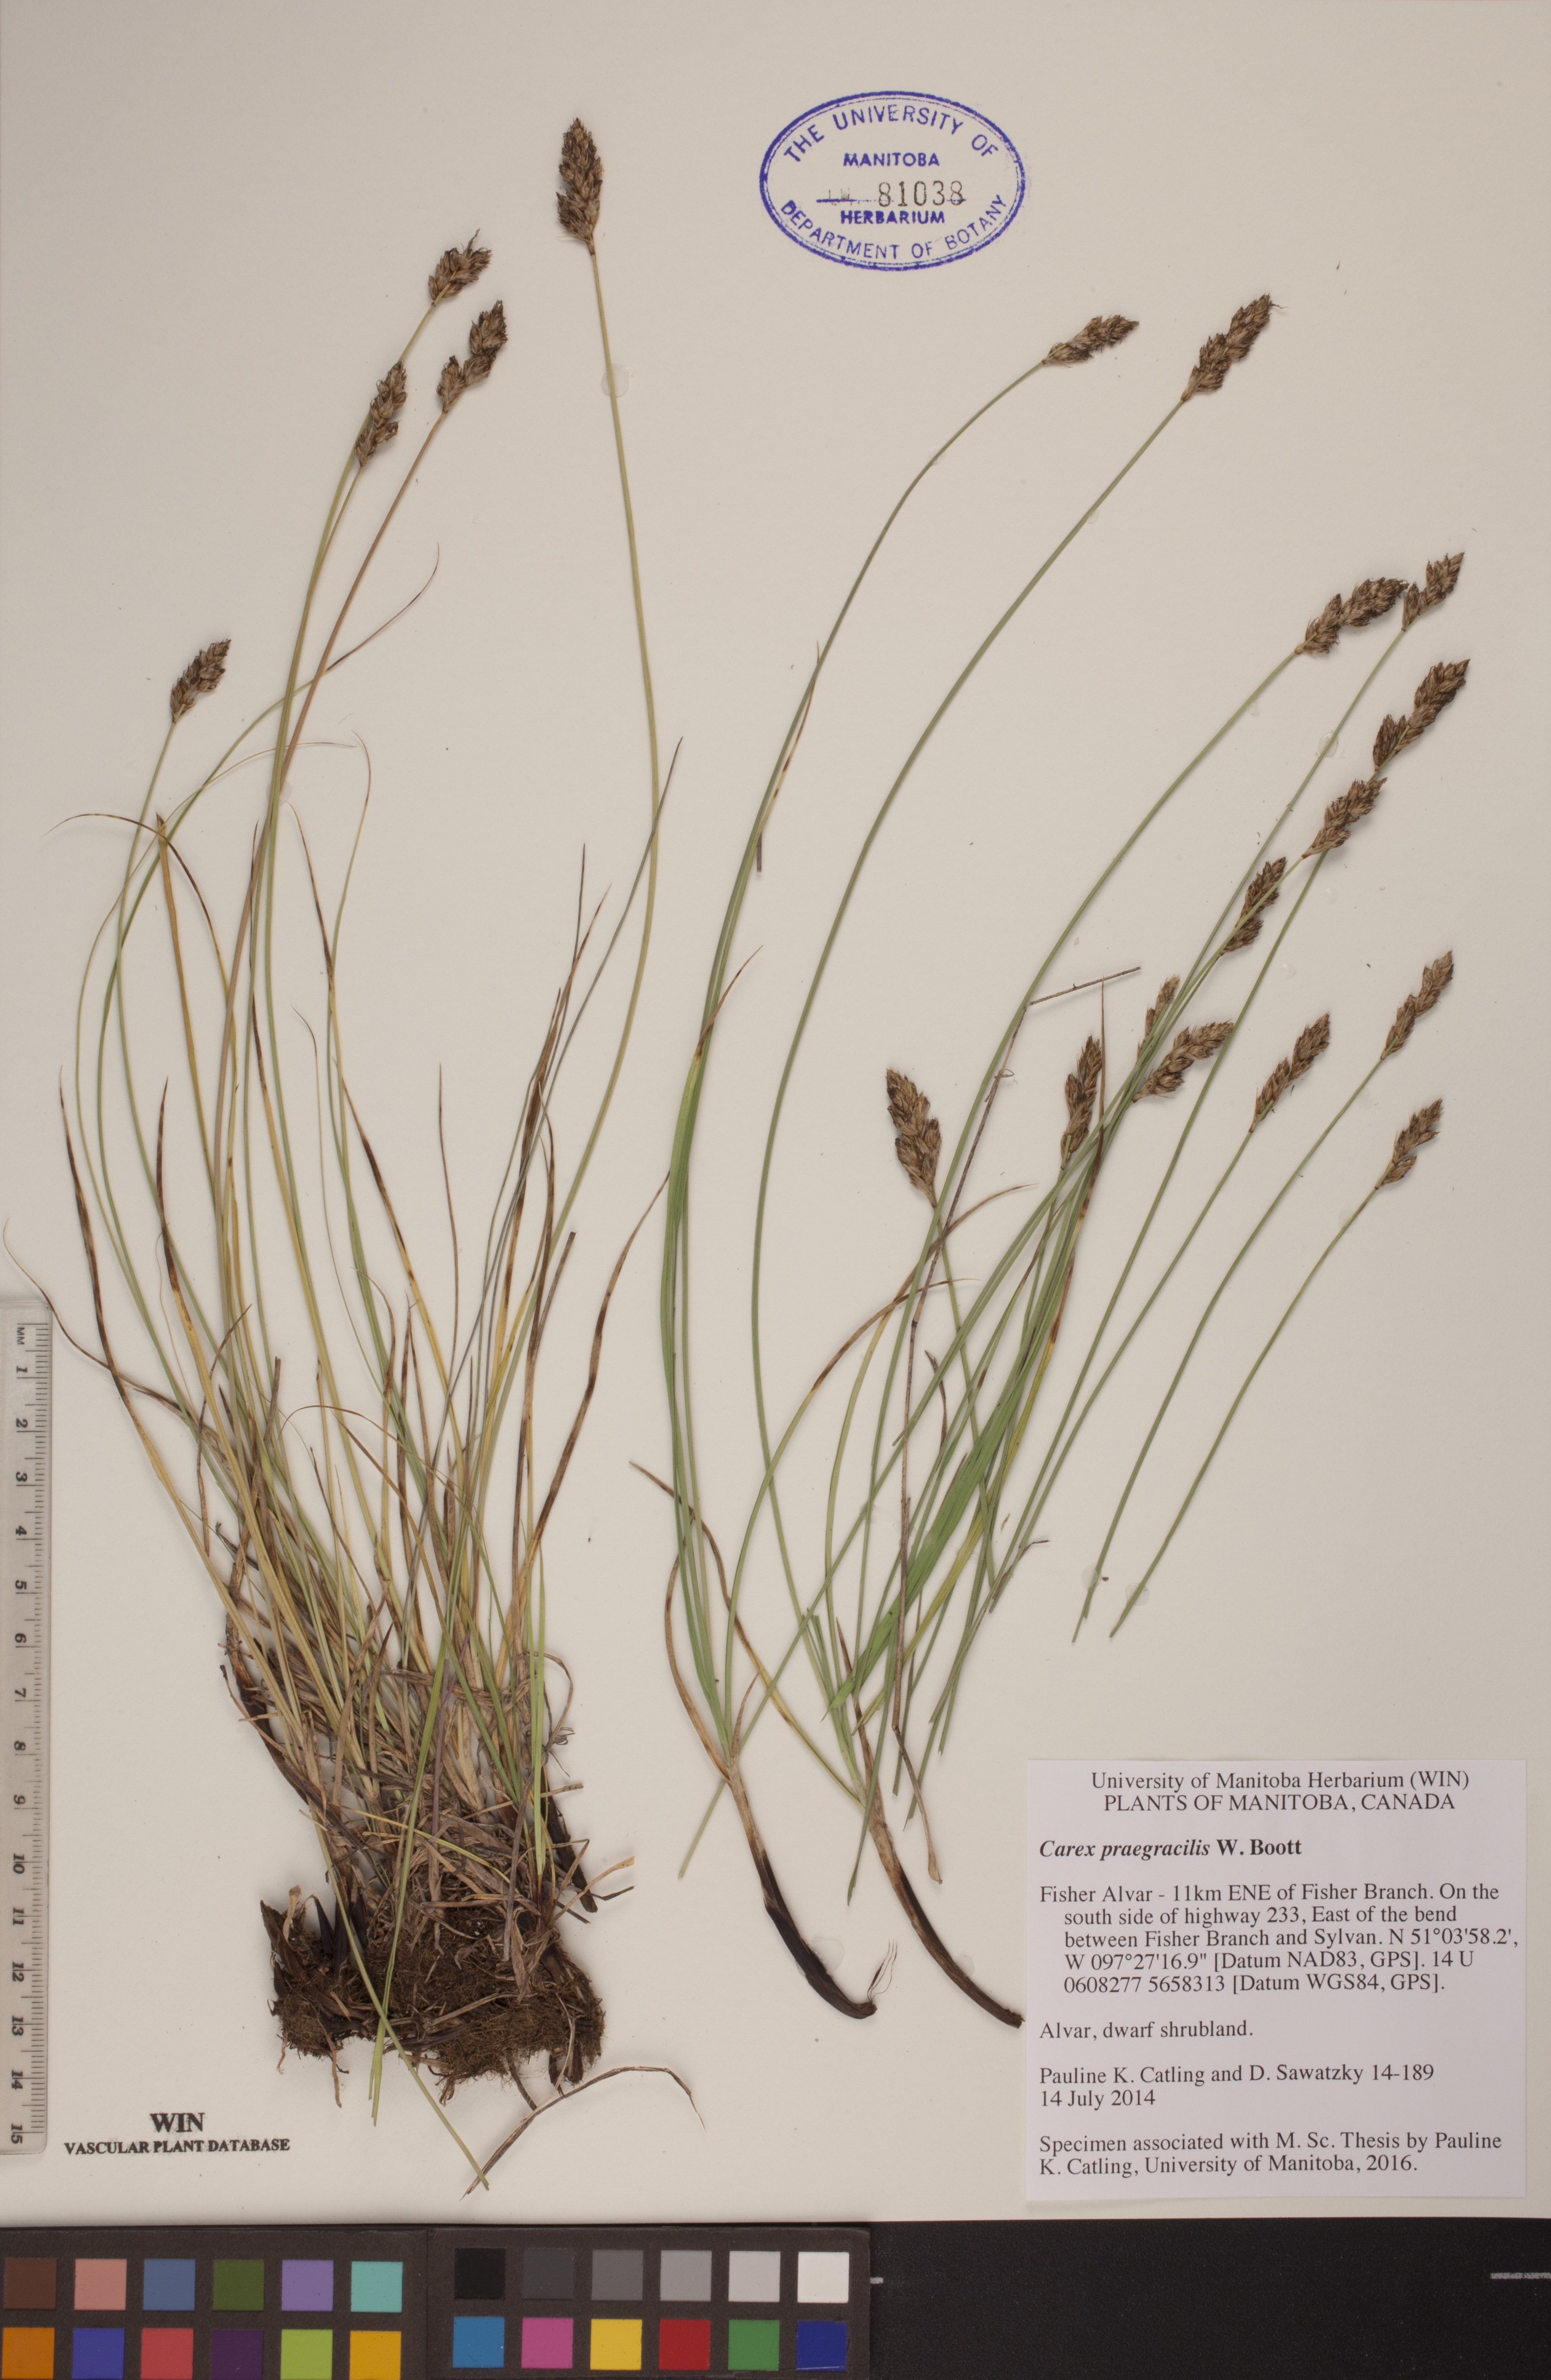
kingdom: Plantae
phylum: Tracheophyta
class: Liliopsida
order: Poales
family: Cyperaceae
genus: Carex
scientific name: Carex praegracilis
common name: Black creeper sedge
